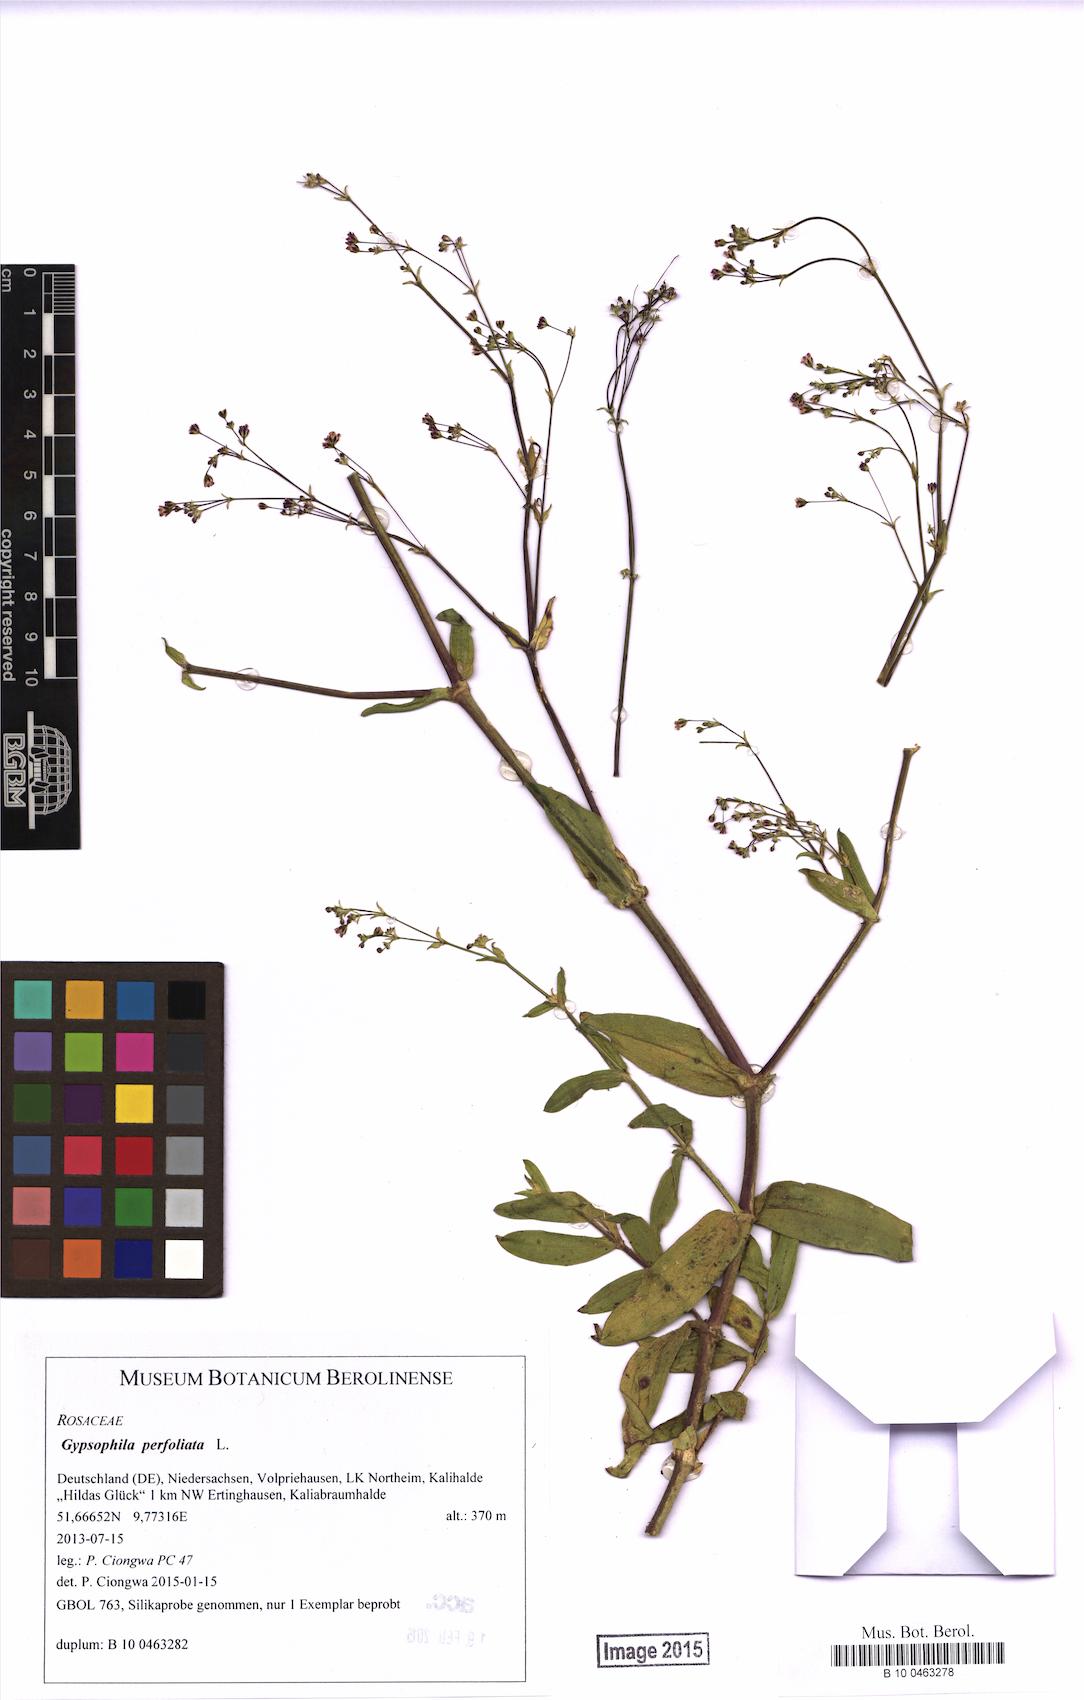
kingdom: Plantae
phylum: Tracheophyta
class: Magnoliopsida
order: Caryophyllales
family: Caryophyllaceae
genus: Gypsophila
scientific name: Gypsophila perfoliata
